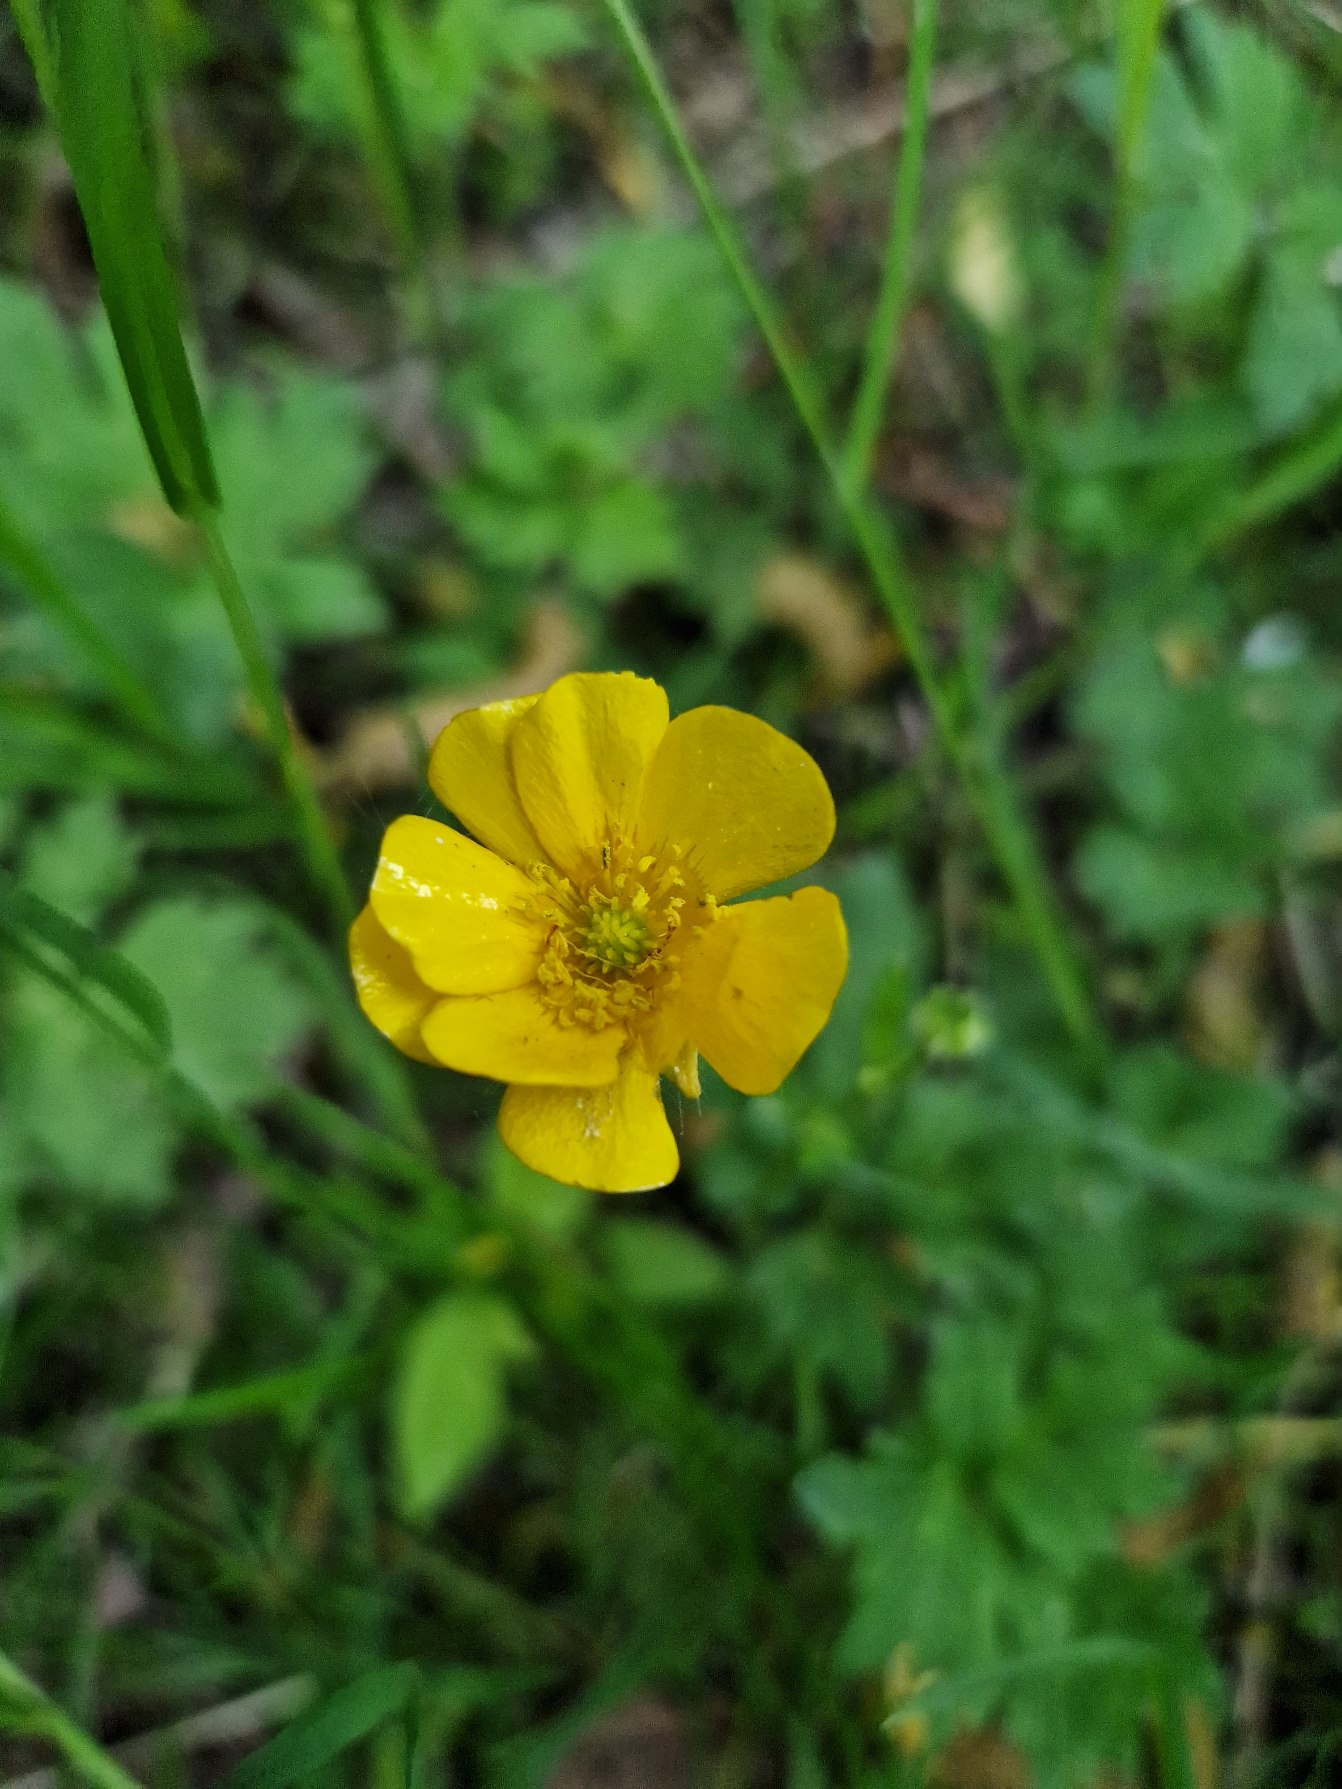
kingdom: Plantae
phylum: Tracheophyta
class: Magnoliopsida
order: Ranunculales
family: Ranunculaceae
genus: Ranunculus
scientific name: Ranunculus repens
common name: Lav ranunkel
